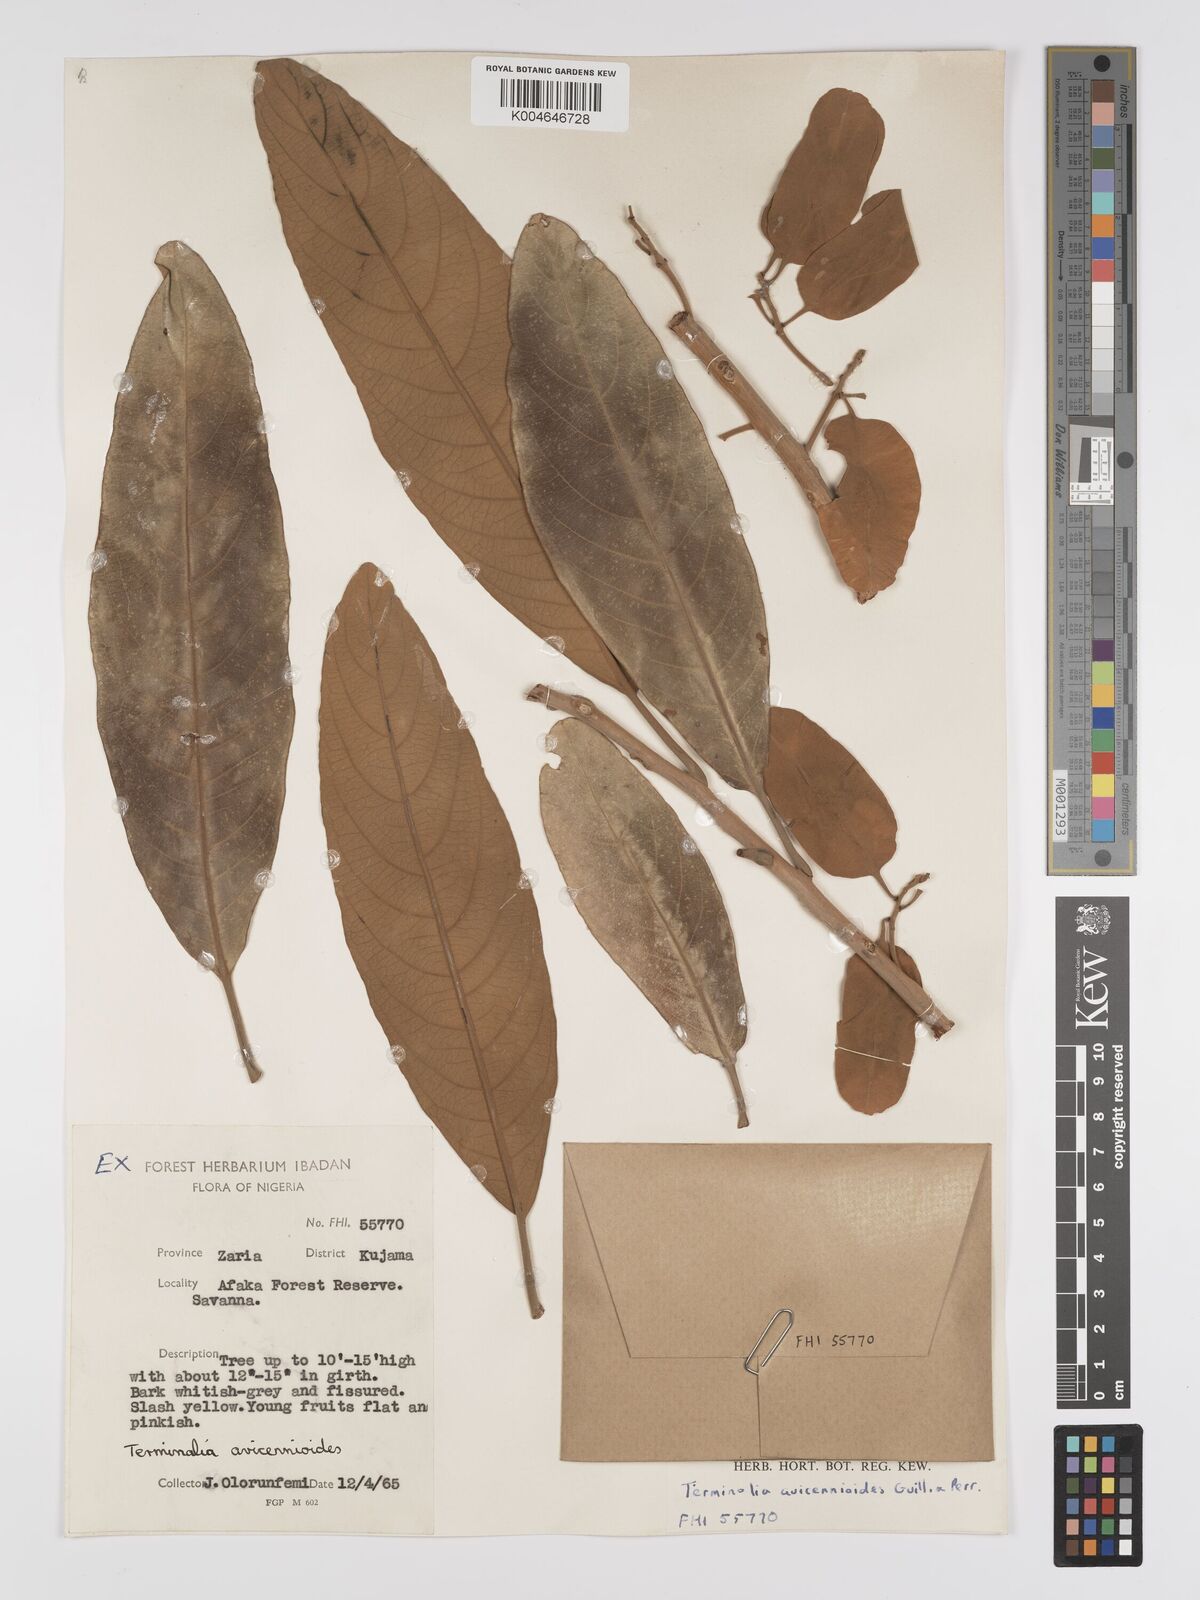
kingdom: Plantae
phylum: Tracheophyta
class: Magnoliopsida
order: Myrtales
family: Combretaceae
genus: Terminalia
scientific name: Terminalia avicennioides
